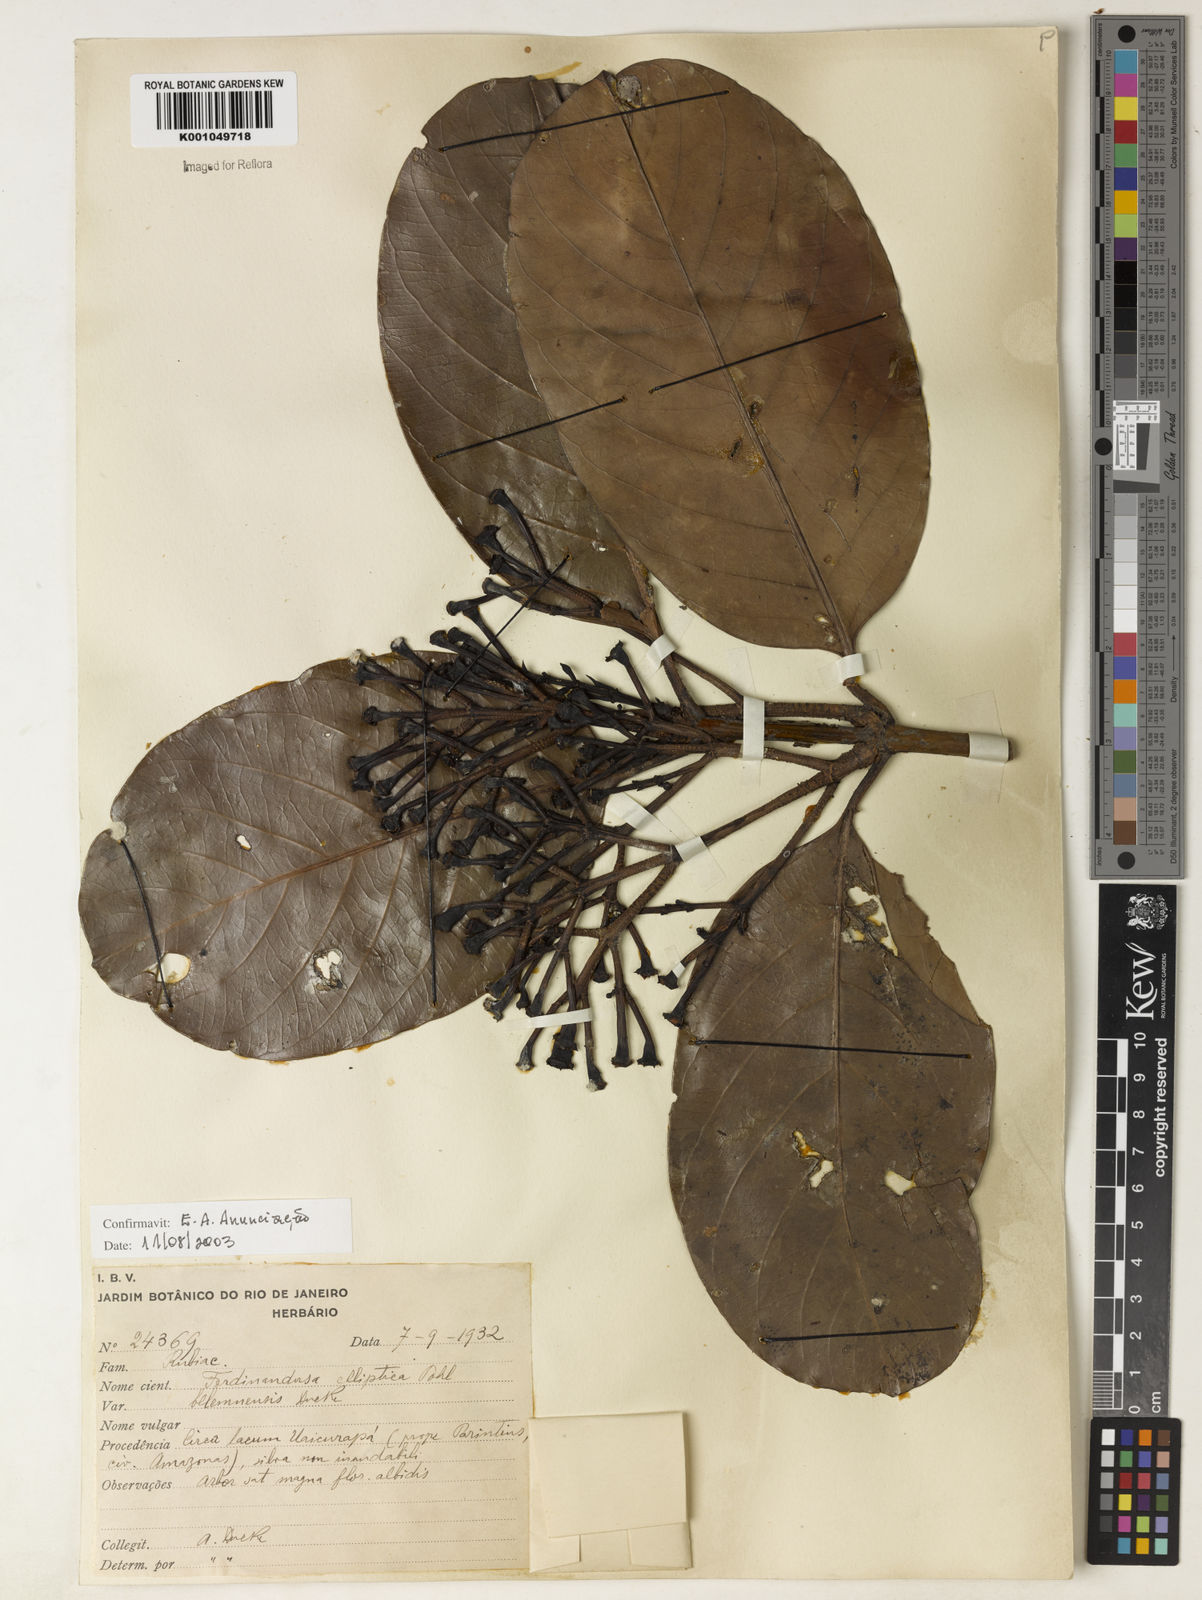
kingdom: Plantae
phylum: Tracheophyta
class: Magnoliopsida
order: Gentianales
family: Rubiaceae
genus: Ferdinandusa
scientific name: Ferdinandusa elliptica
